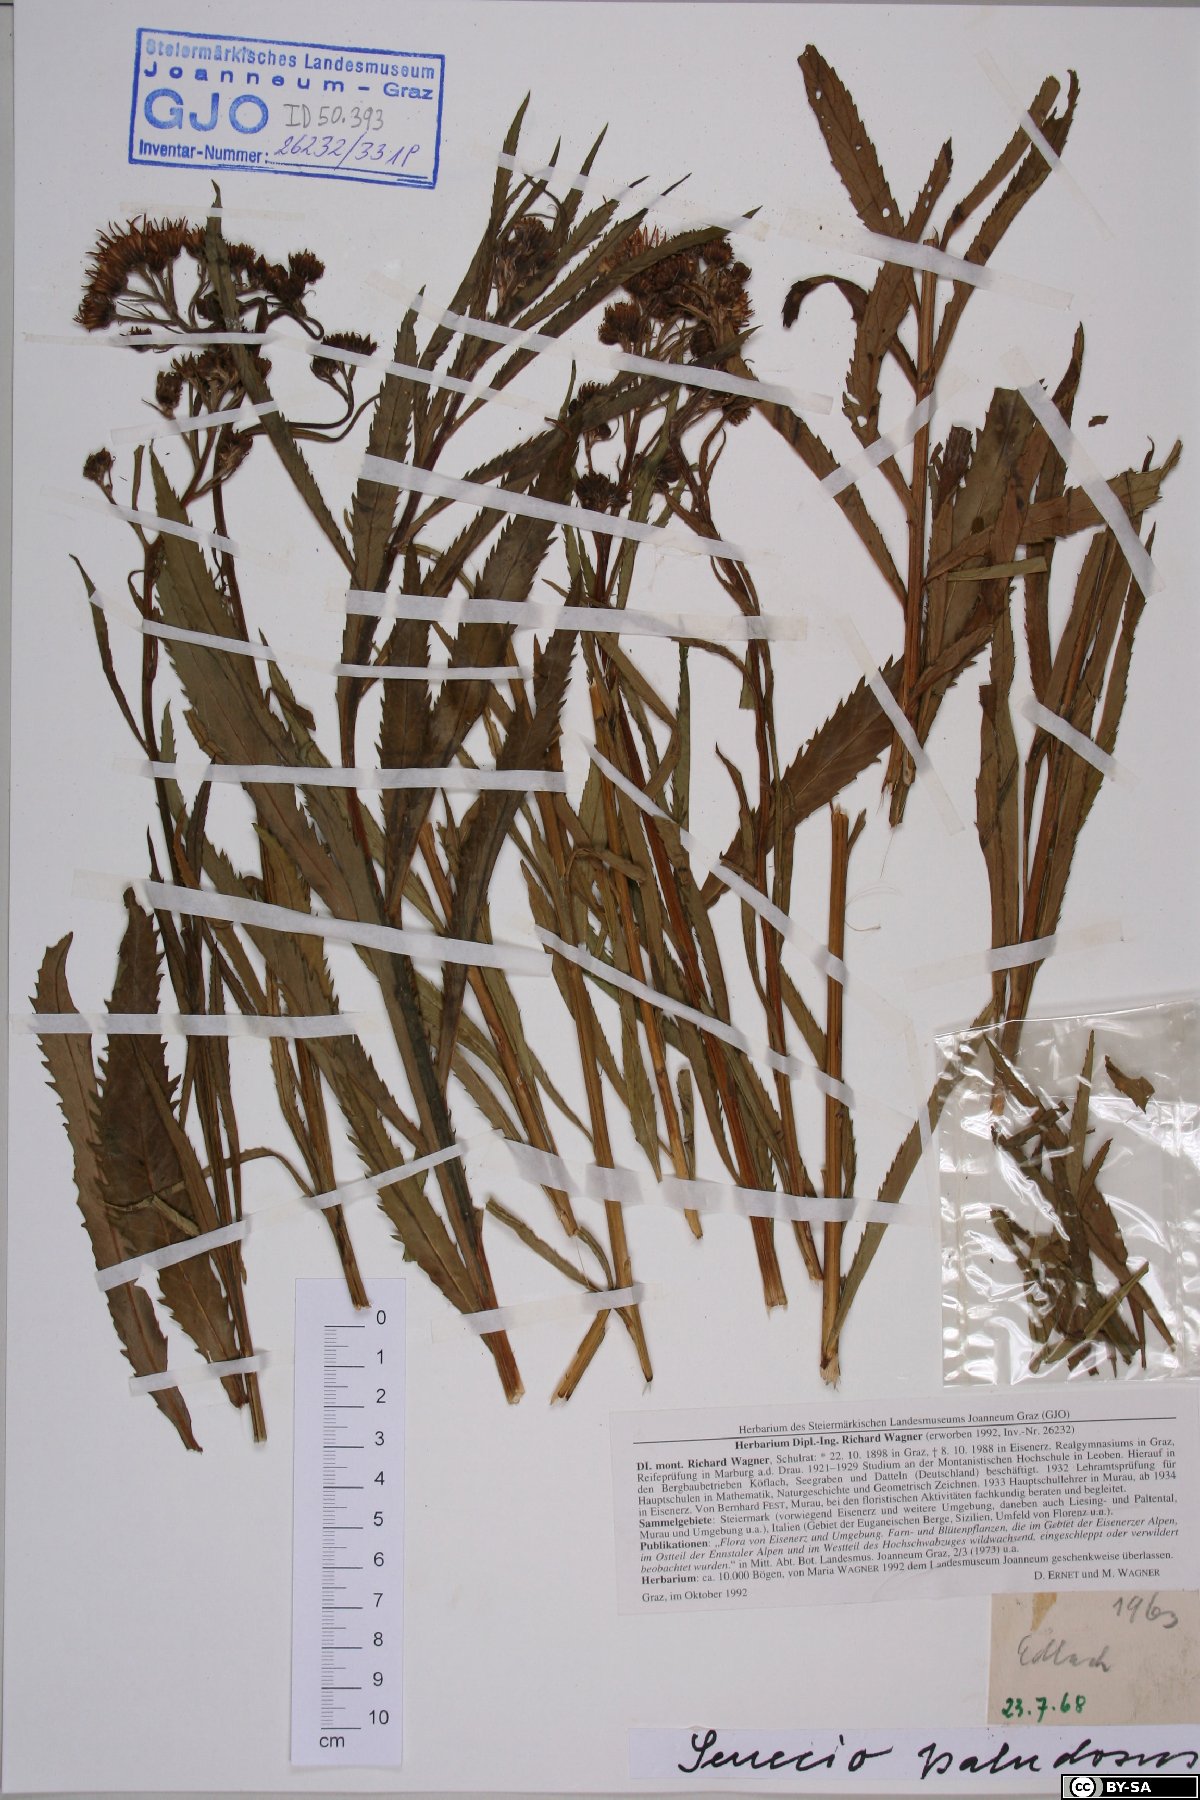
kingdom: Plantae
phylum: Tracheophyta
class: Magnoliopsida
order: Asterales
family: Asteraceae
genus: Jacobaea
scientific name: Jacobaea paludosa
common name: Fen ragwort
